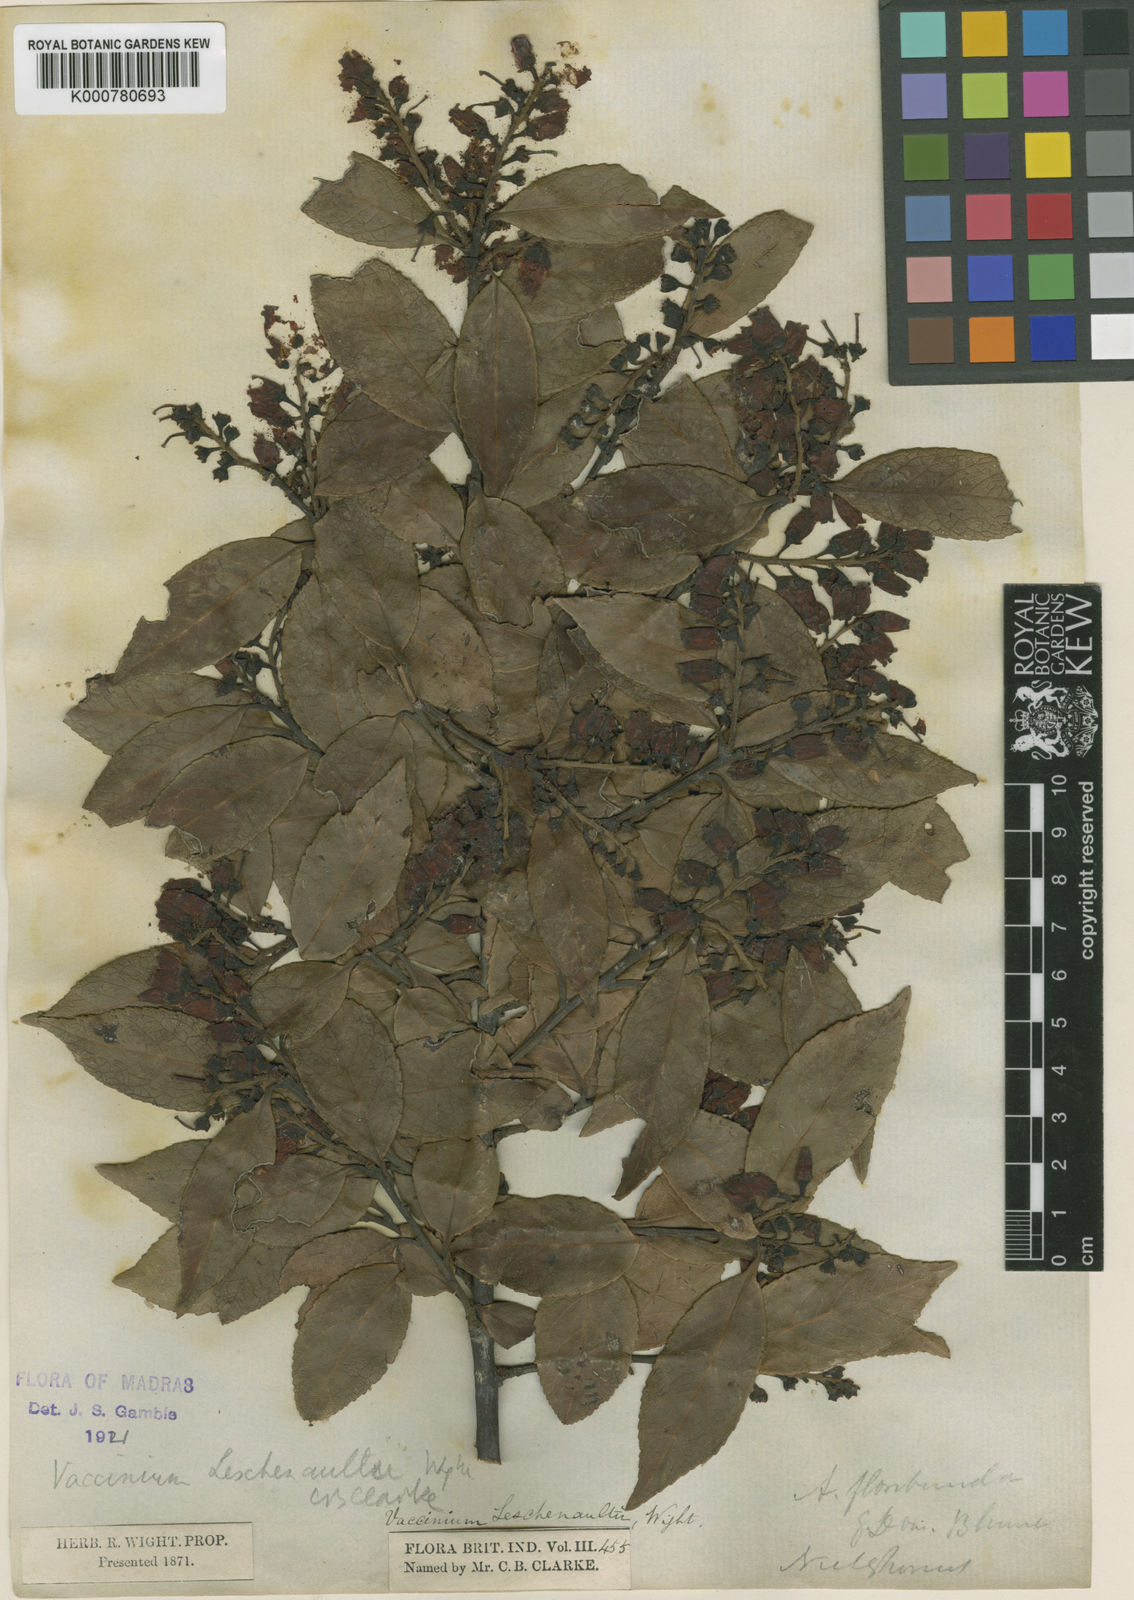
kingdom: Plantae
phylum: Tracheophyta
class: Magnoliopsida
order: Ericales
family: Ericaceae
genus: Vaccinium
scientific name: Vaccinium symplocifolium
